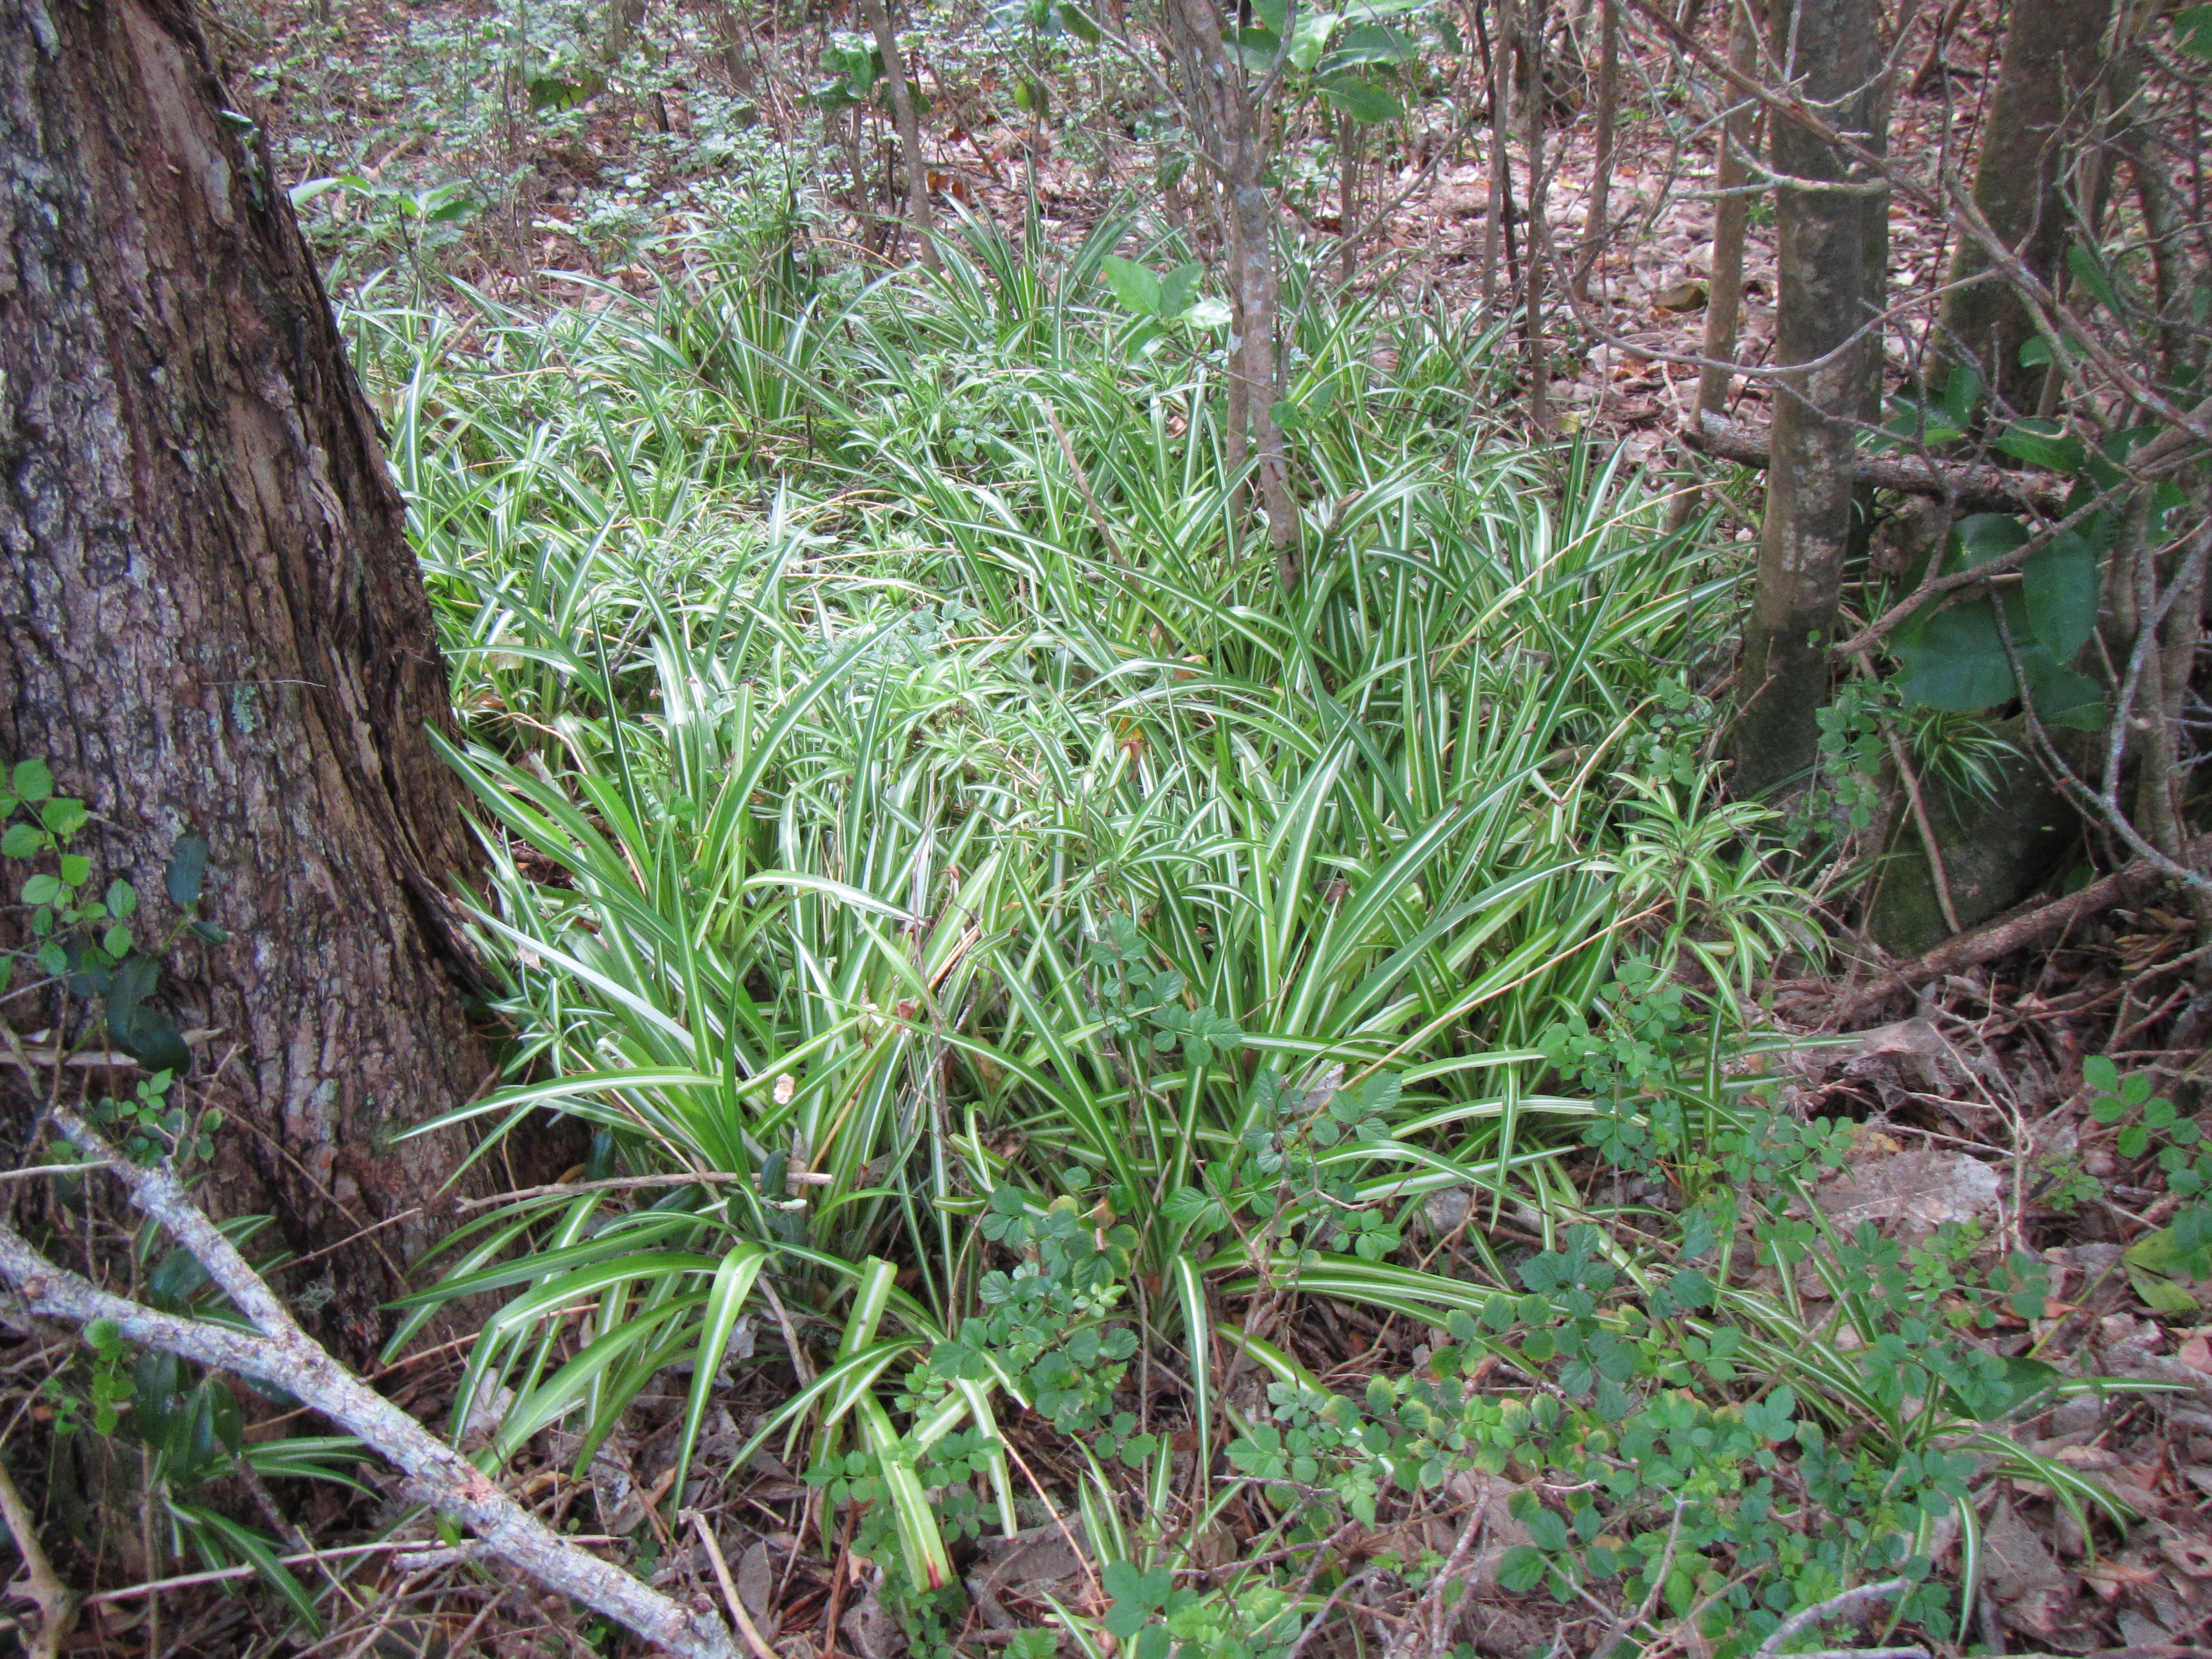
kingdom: Plantae
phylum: Tracheophyta
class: Liliopsida
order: Asparagales
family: Asparagaceae
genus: Chlorophytum
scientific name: Chlorophytum comosum
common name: Spider plant
